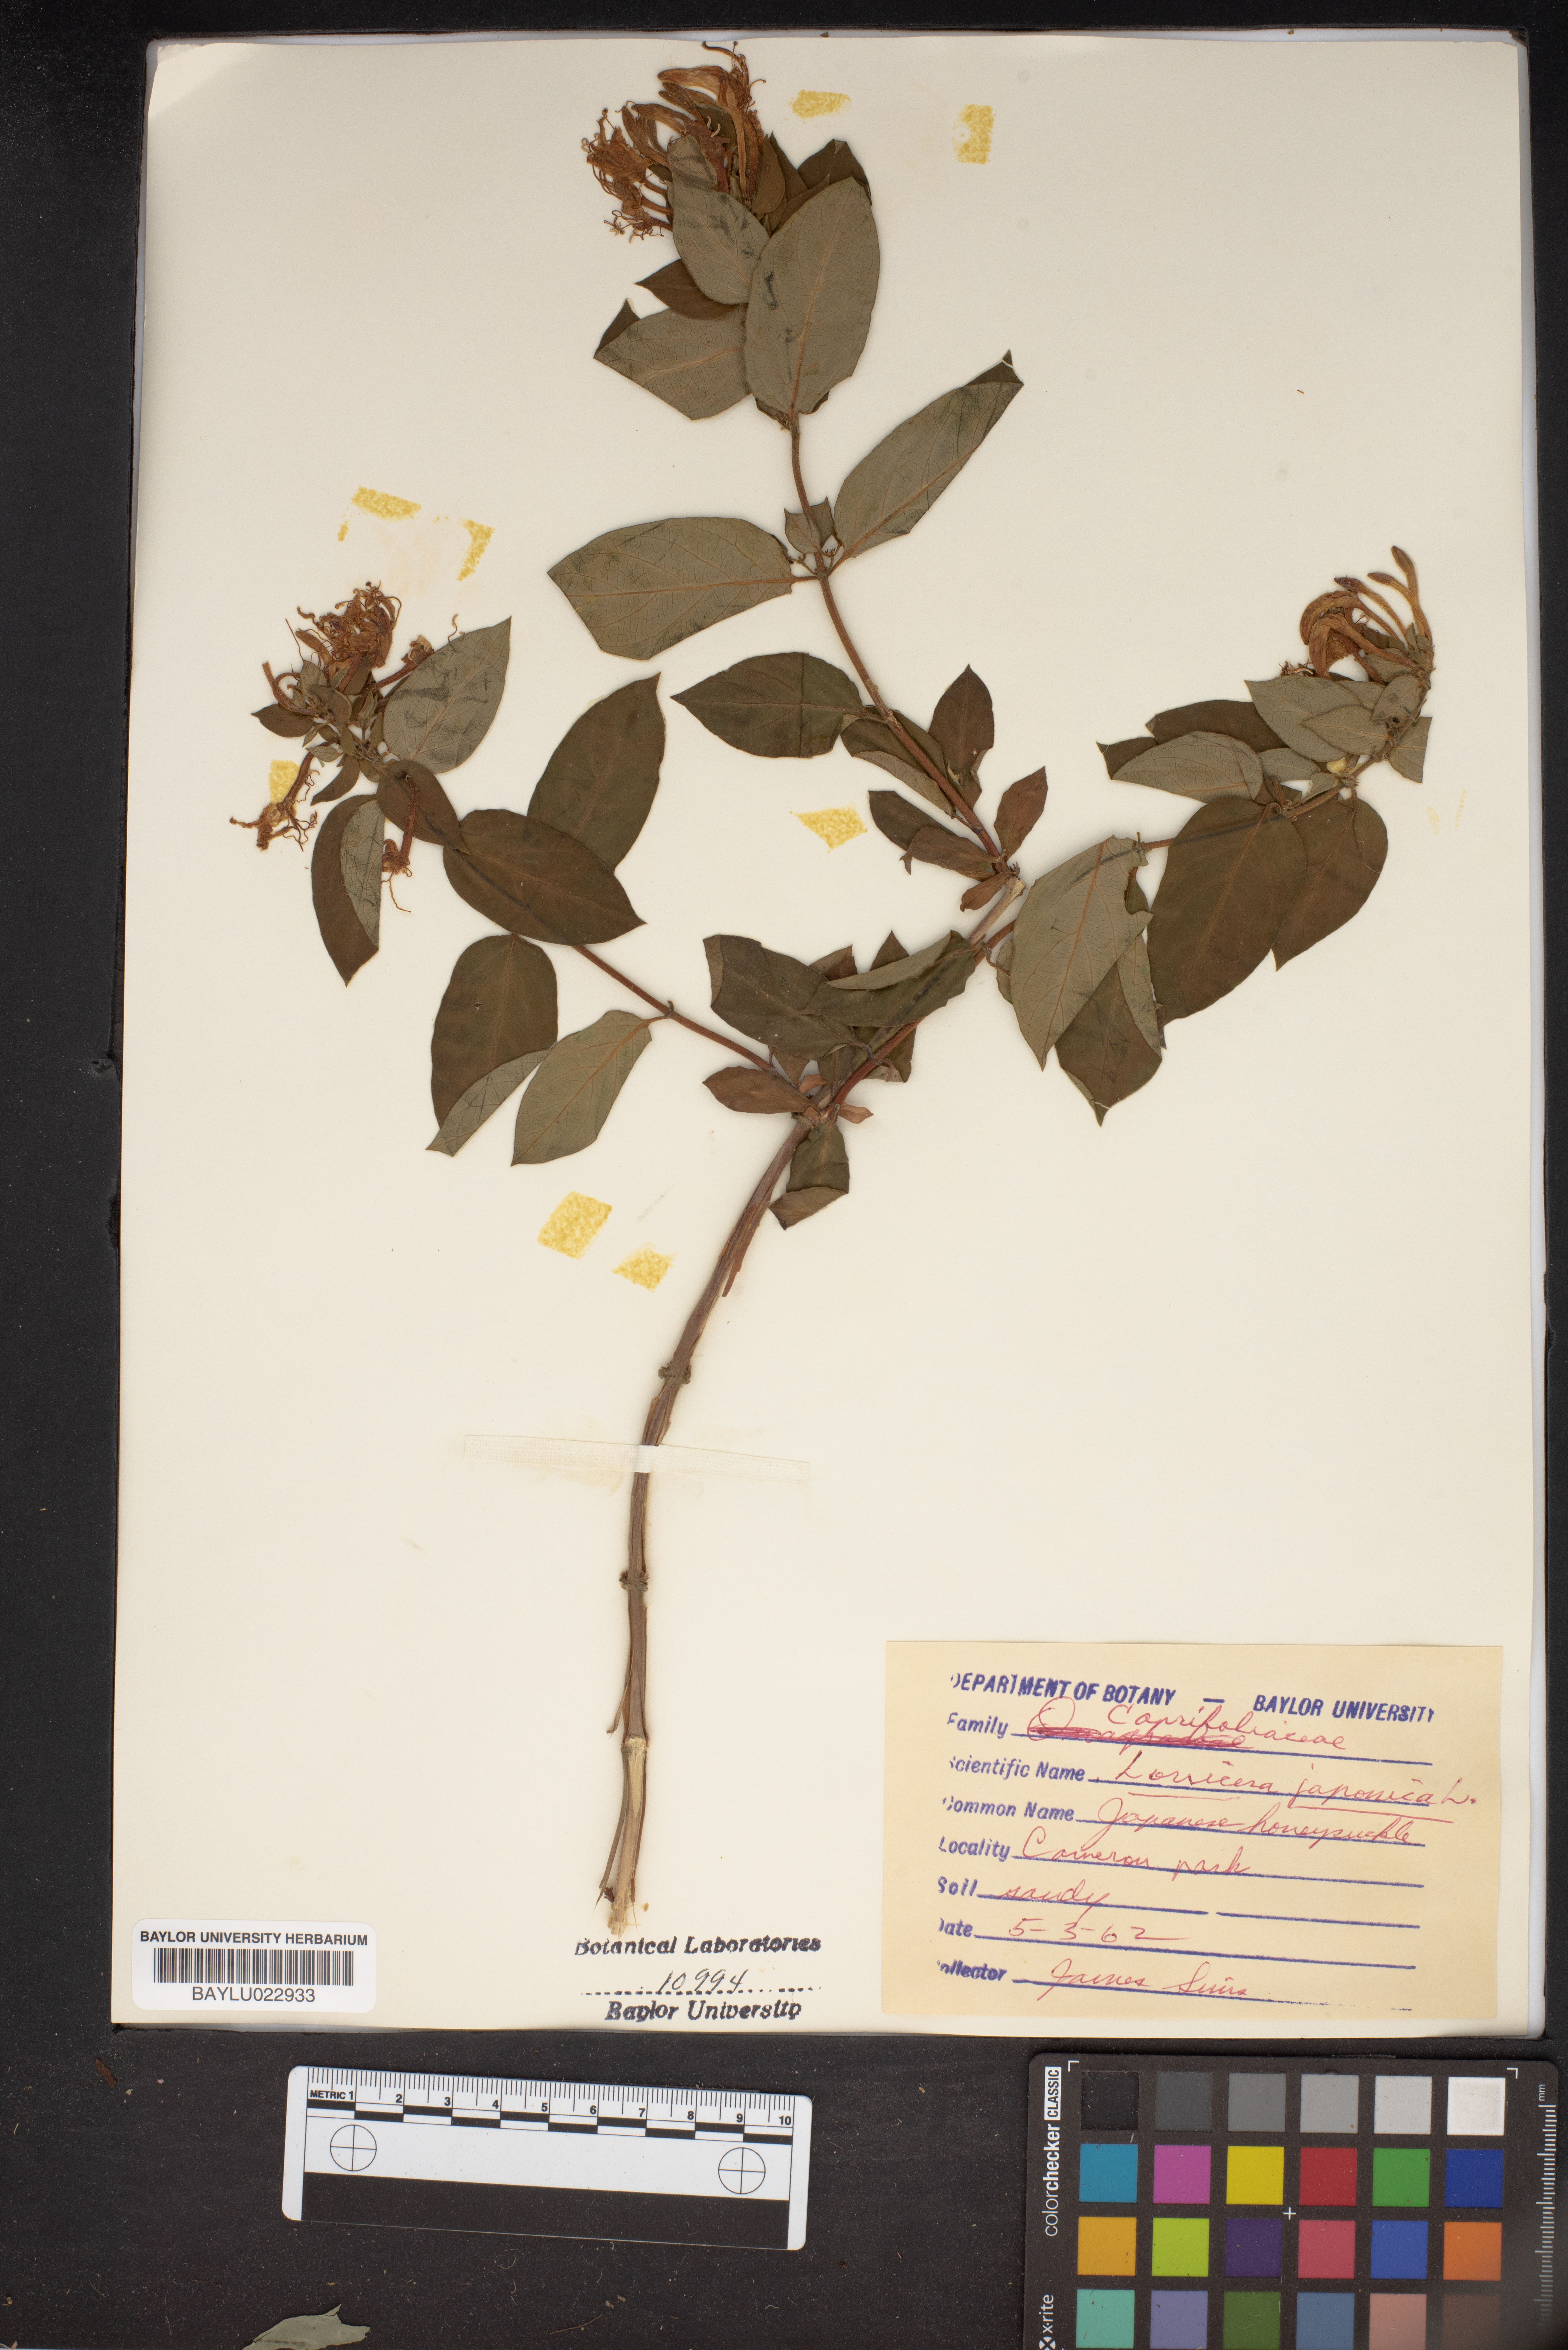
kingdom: Plantae
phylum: Tracheophyta
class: Magnoliopsida
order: Dipsacales
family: Caprifoliaceae
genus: Lonicera
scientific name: Lonicera japonica
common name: Japanese honeysuckle
